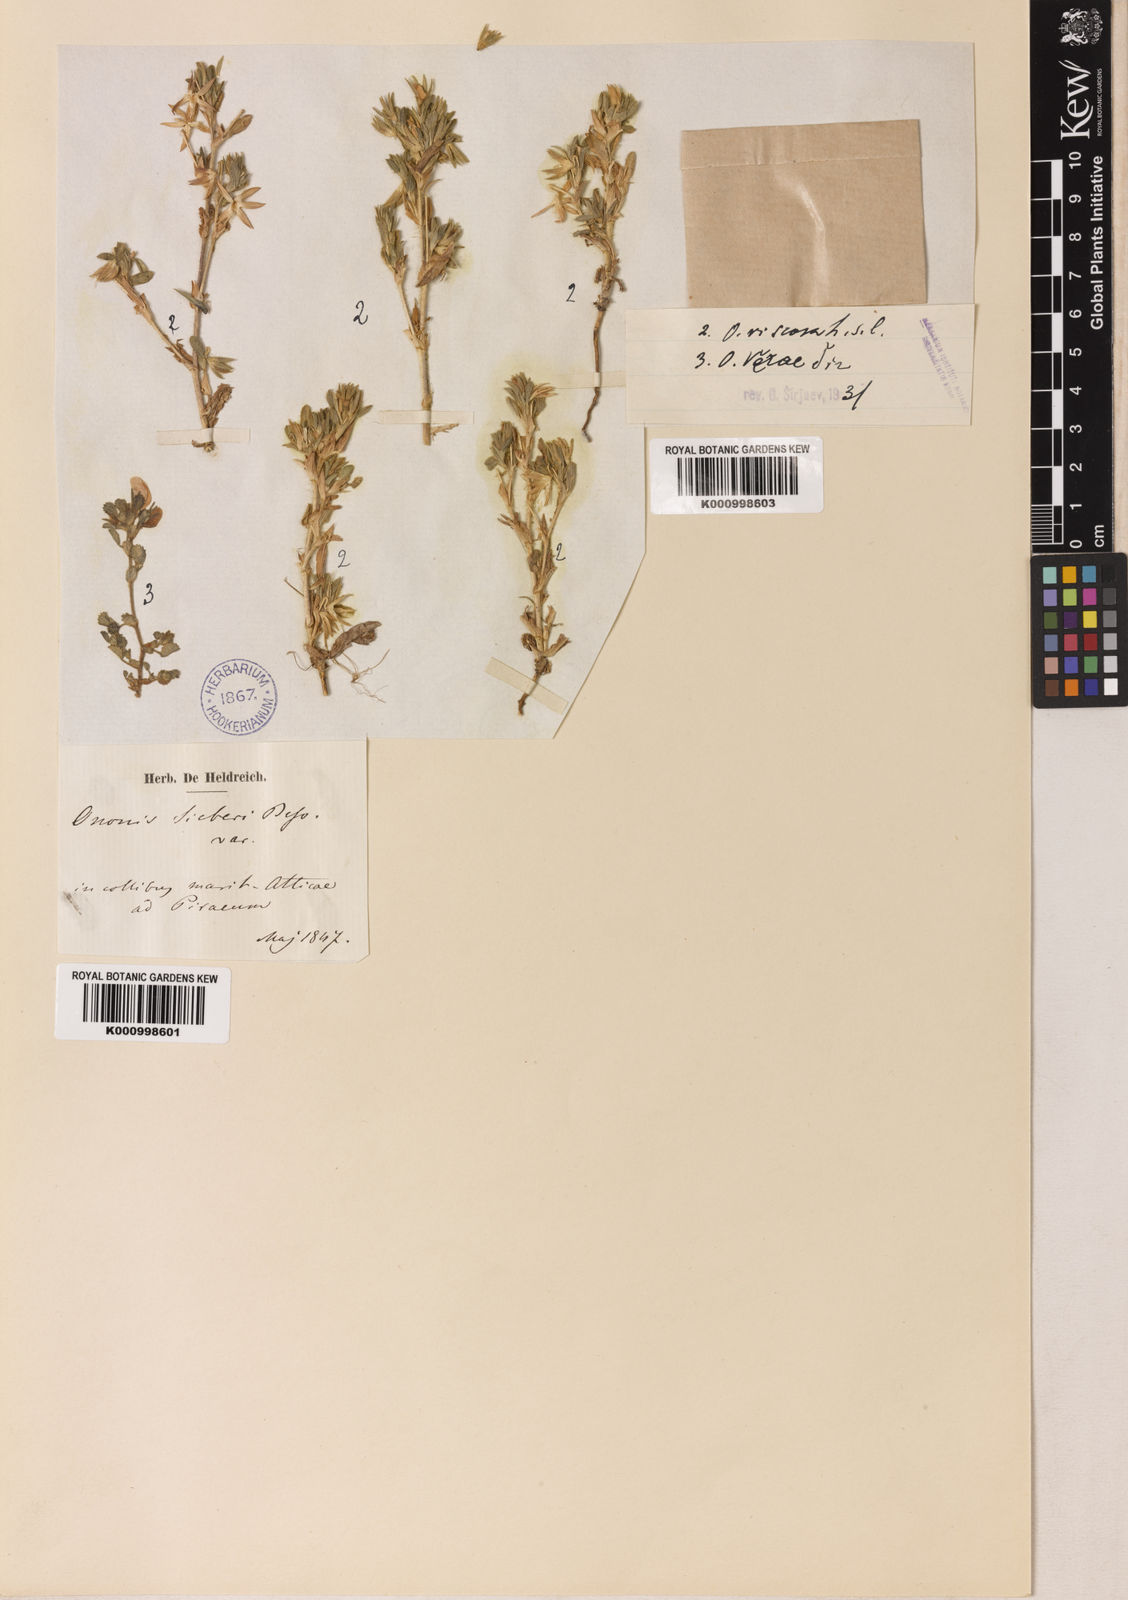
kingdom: Plantae
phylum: Tracheophyta
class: Magnoliopsida
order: Fabales
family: Fabaceae
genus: Ononis
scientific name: Ononis
